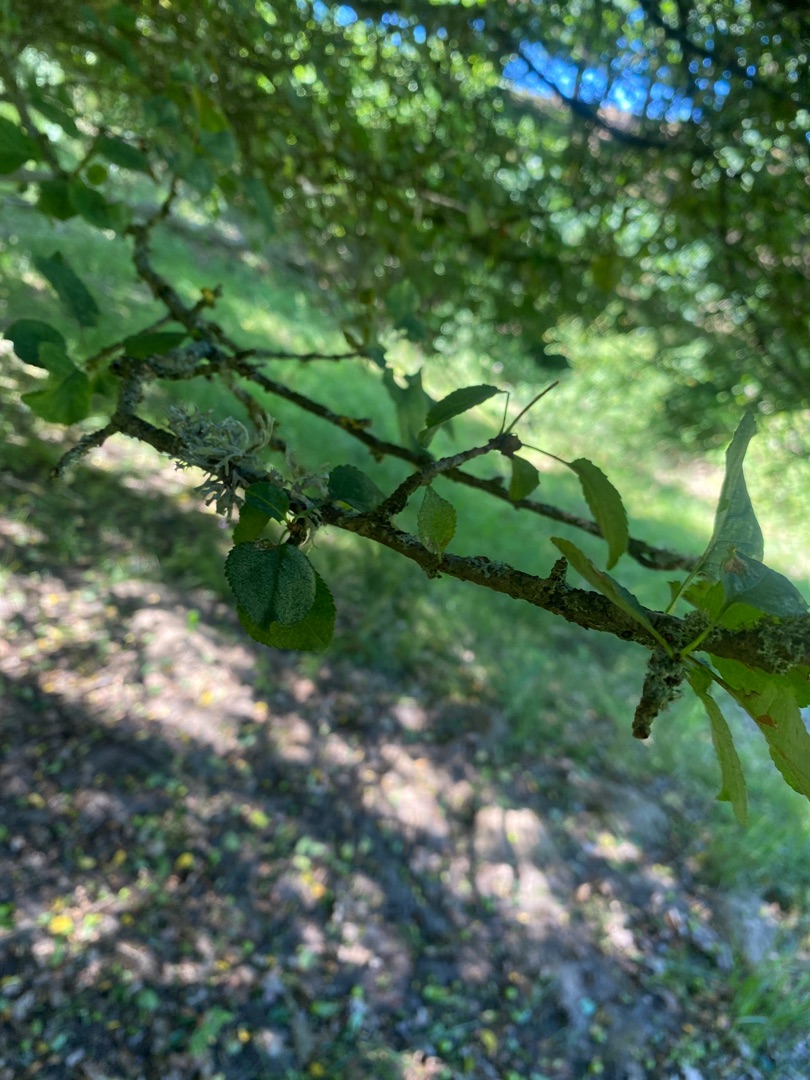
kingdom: Plantae
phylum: Tracheophyta
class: Magnoliopsida
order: Rosales
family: Rosaceae
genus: Malus
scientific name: Malus
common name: Æbleslægten
